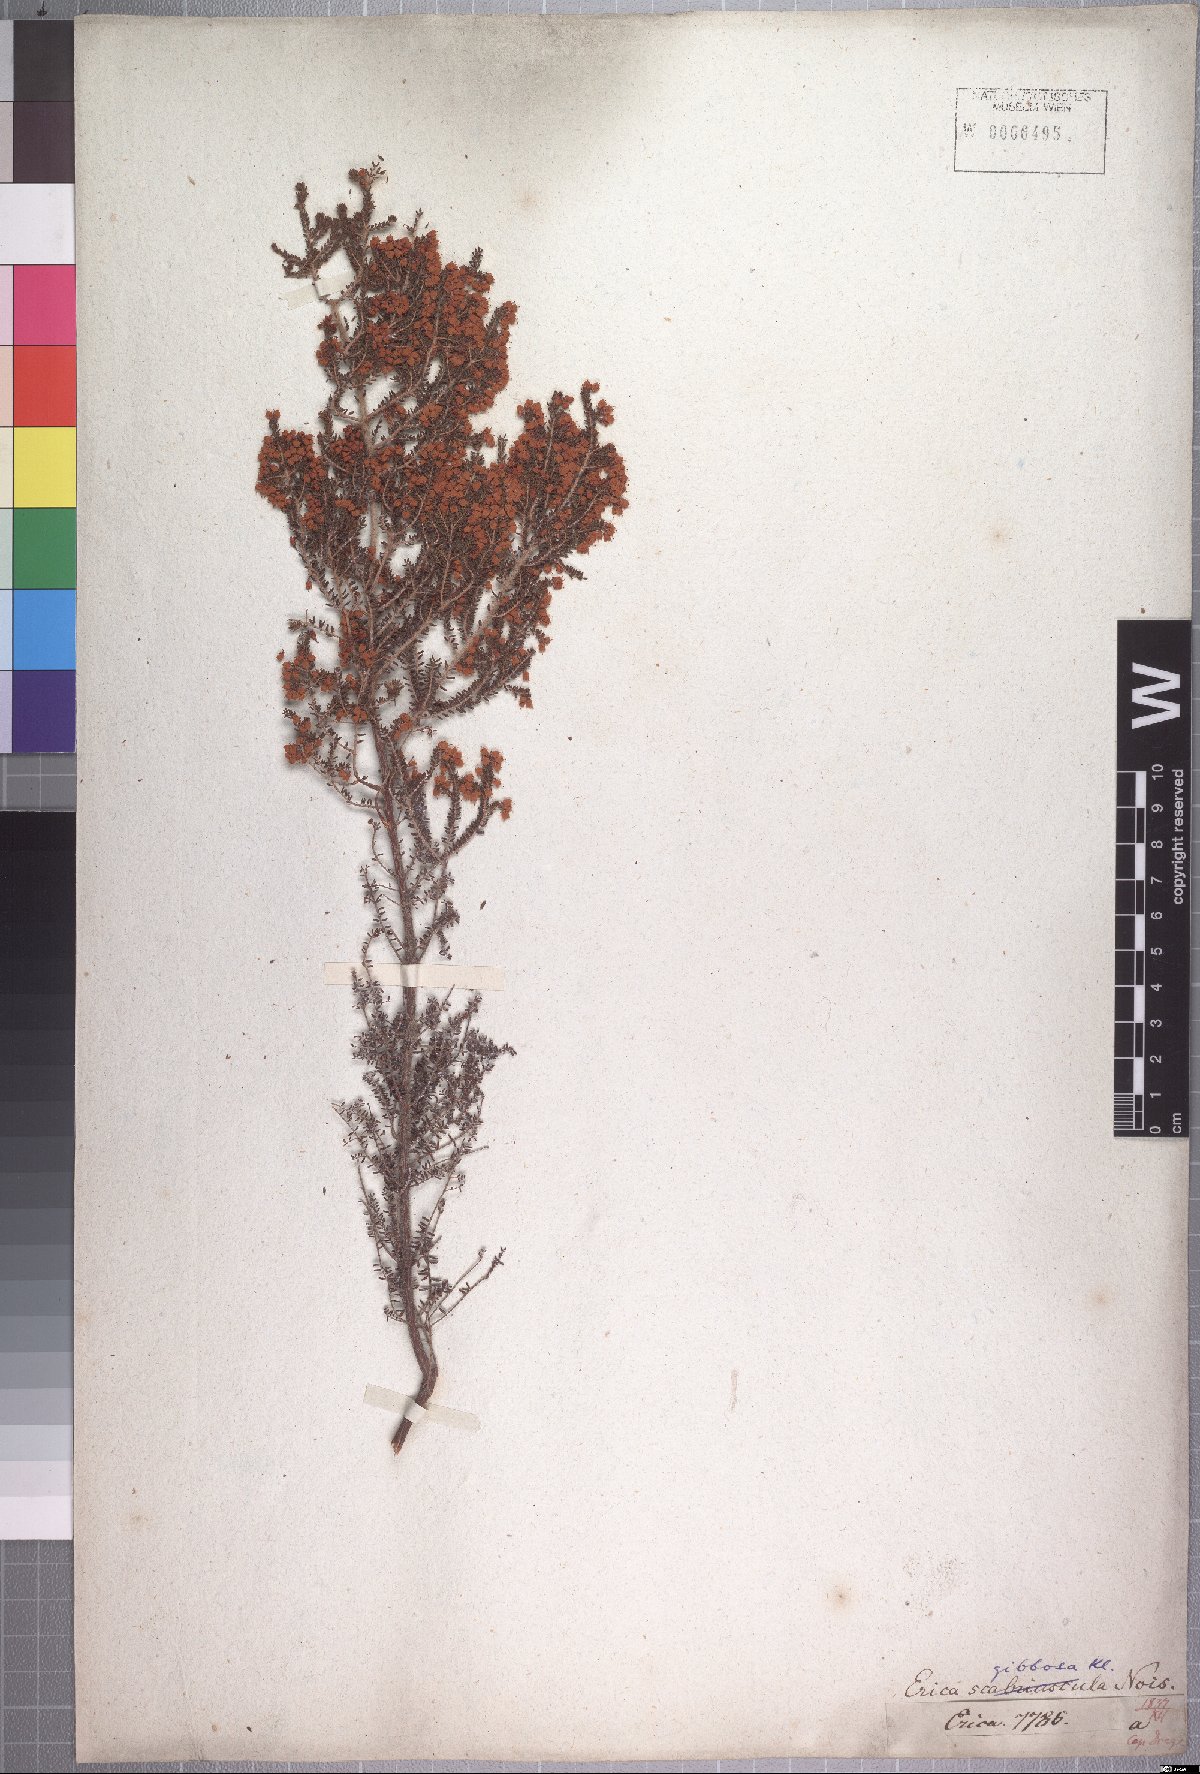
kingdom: Plantae
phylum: Tracheophyta
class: Magnoliopsida
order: Ericales
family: Ericaceae
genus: Erica
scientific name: Erica scabriuscula
